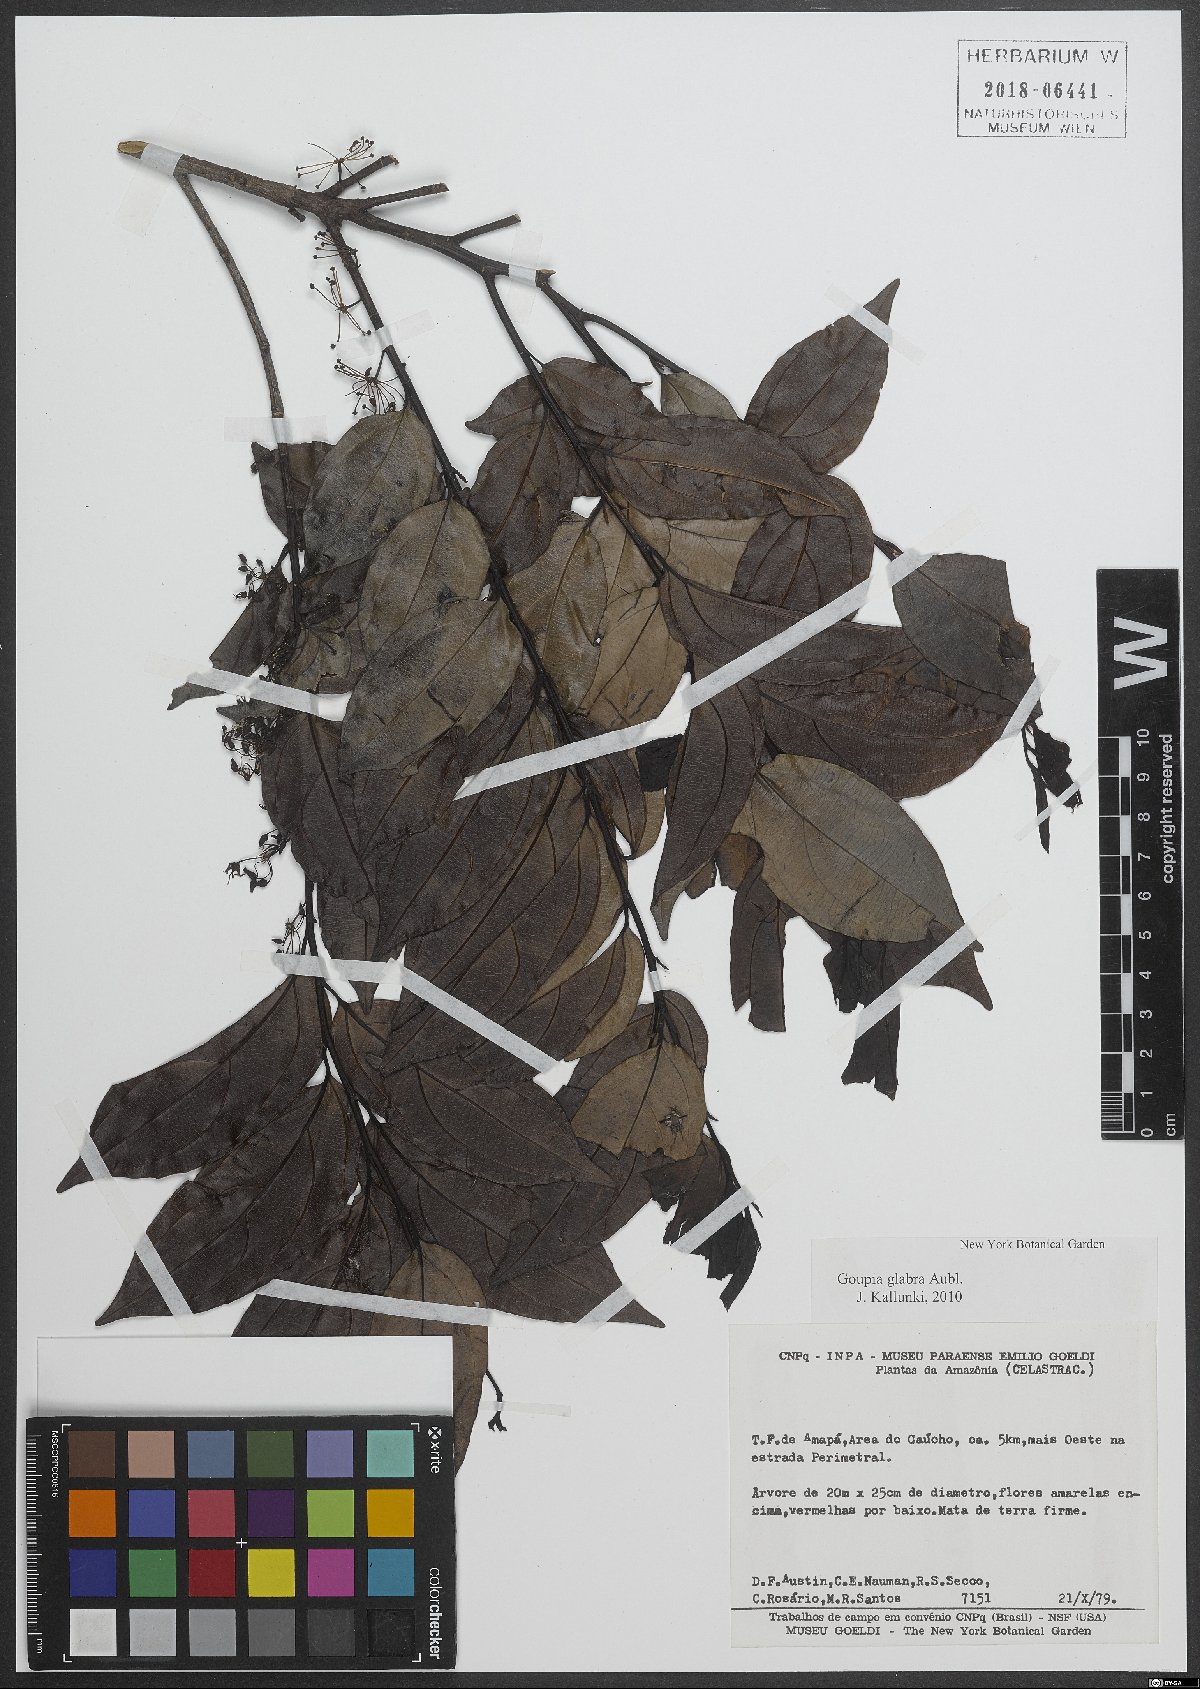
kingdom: Plantae
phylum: Tracheophyta
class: Magnoliopsida
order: Malpighiales
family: Goupiaceae
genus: Goupia
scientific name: Goupia glabra
